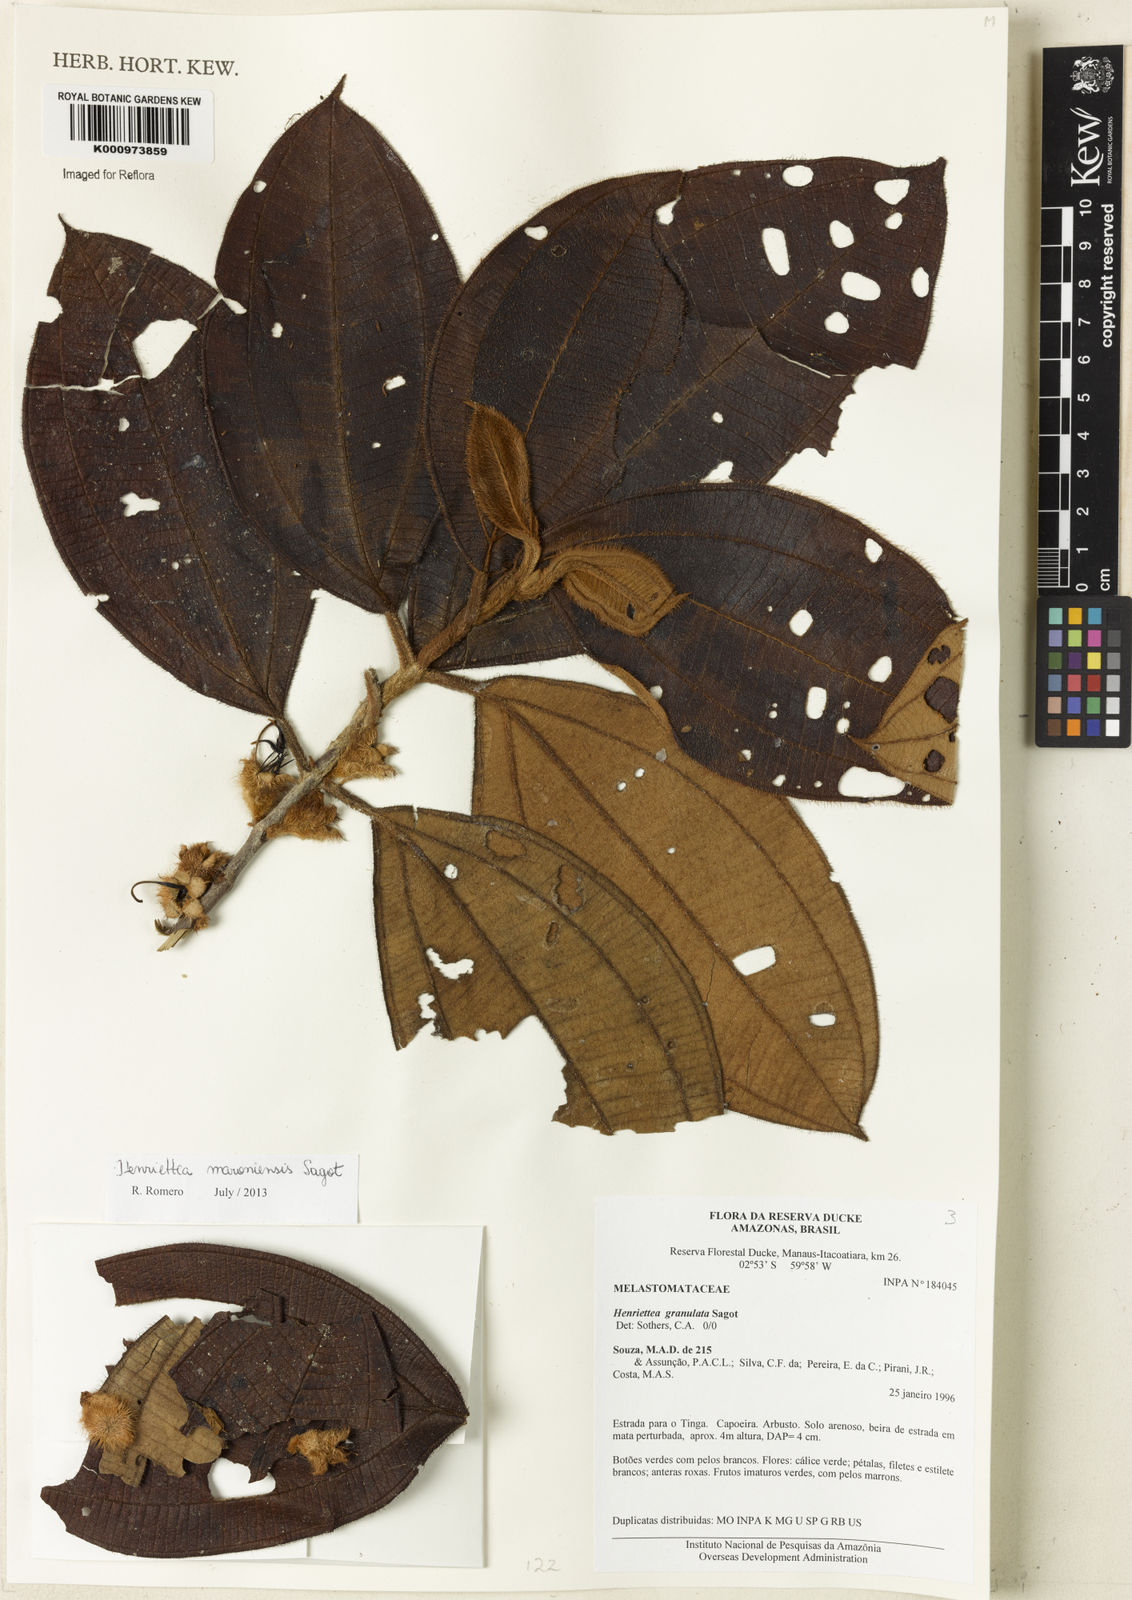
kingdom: Plantae
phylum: Tracheophyta
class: Magnoliopsida
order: Myrtales
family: Melastomataceae
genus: Henriettea
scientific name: Henriettea maroniensis
